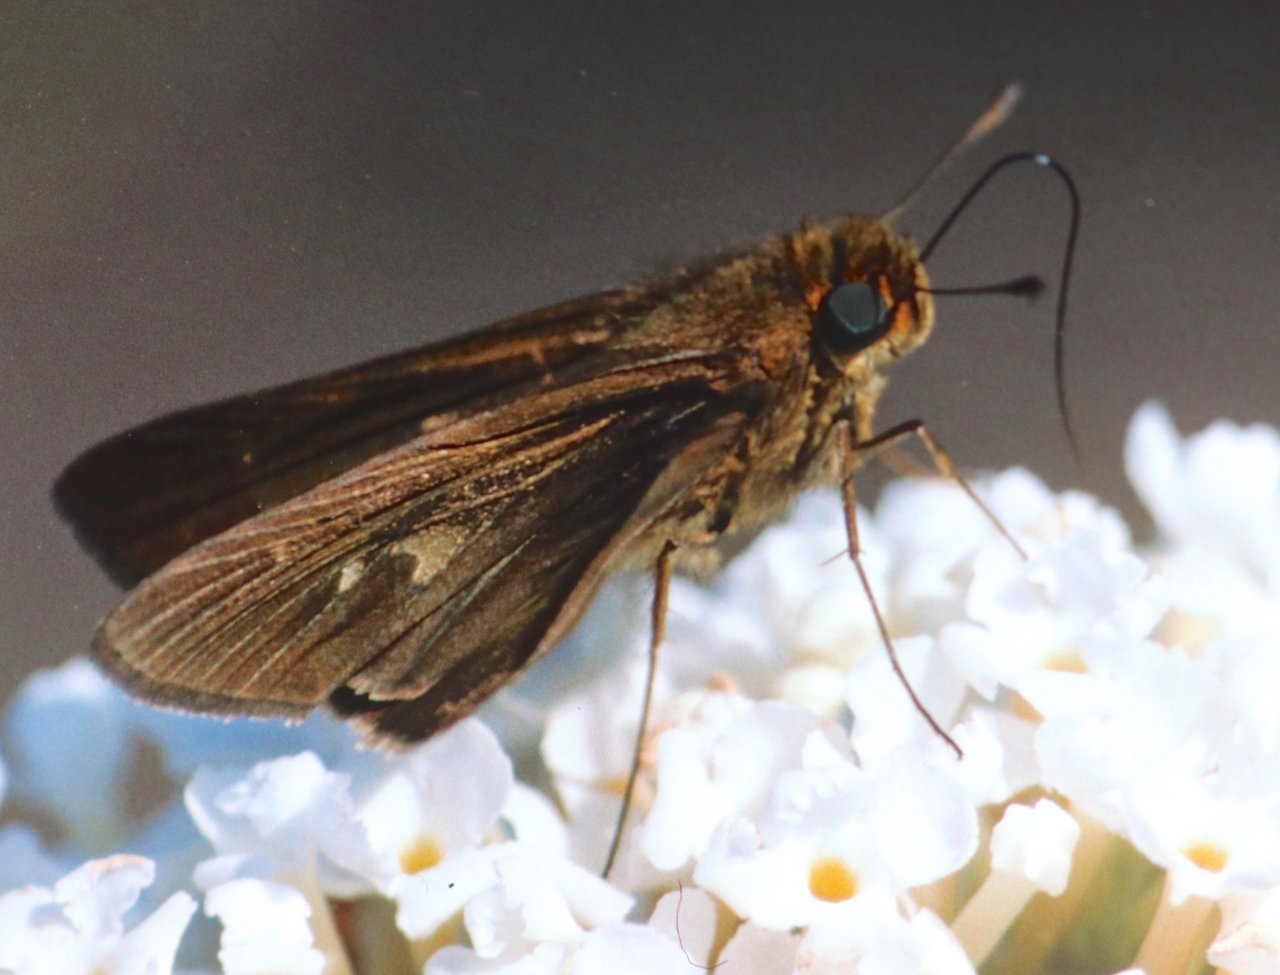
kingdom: Animalia
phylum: Arthropoda
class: Insecta
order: Lepidoptera
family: Hesperiidae
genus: Panoquina
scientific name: Panoquina ocola
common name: Ocola Skipper
